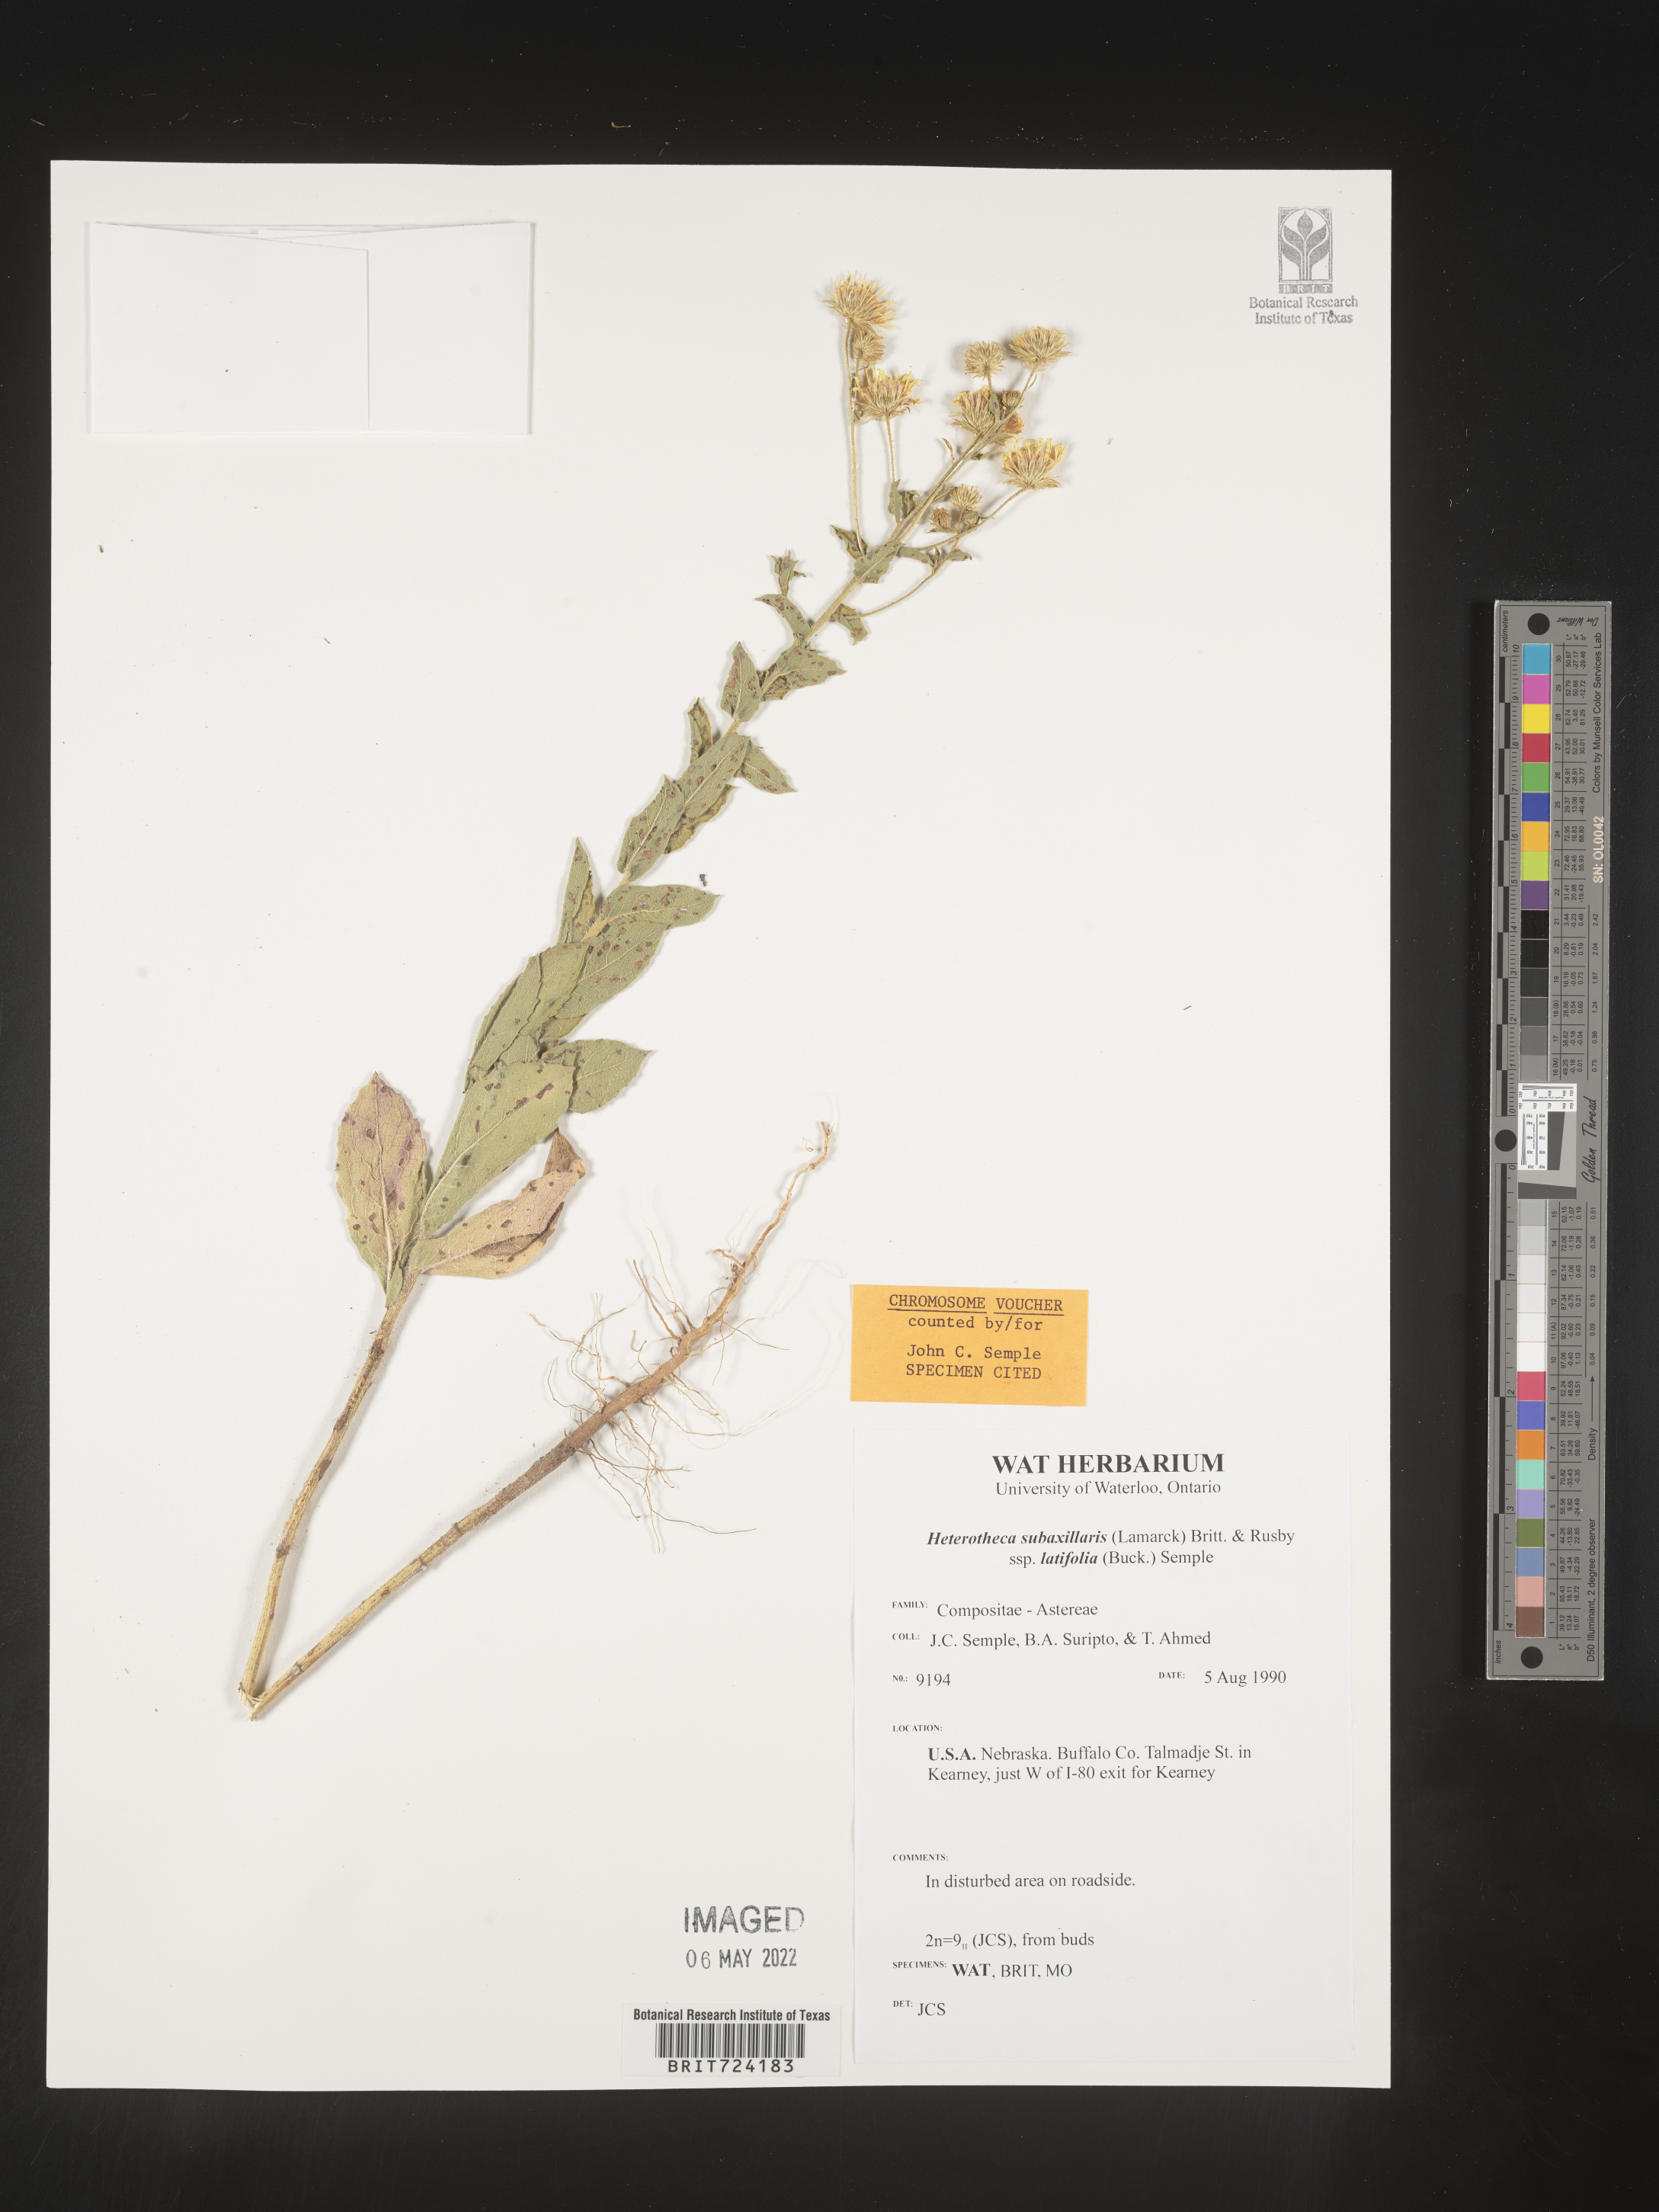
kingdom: Plantae
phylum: Tracheophyta
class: Magnoliopsida
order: Asterales
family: Asteraceae
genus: Heterotheca
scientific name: Heterotheca subaxillaris
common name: Camphorweed
